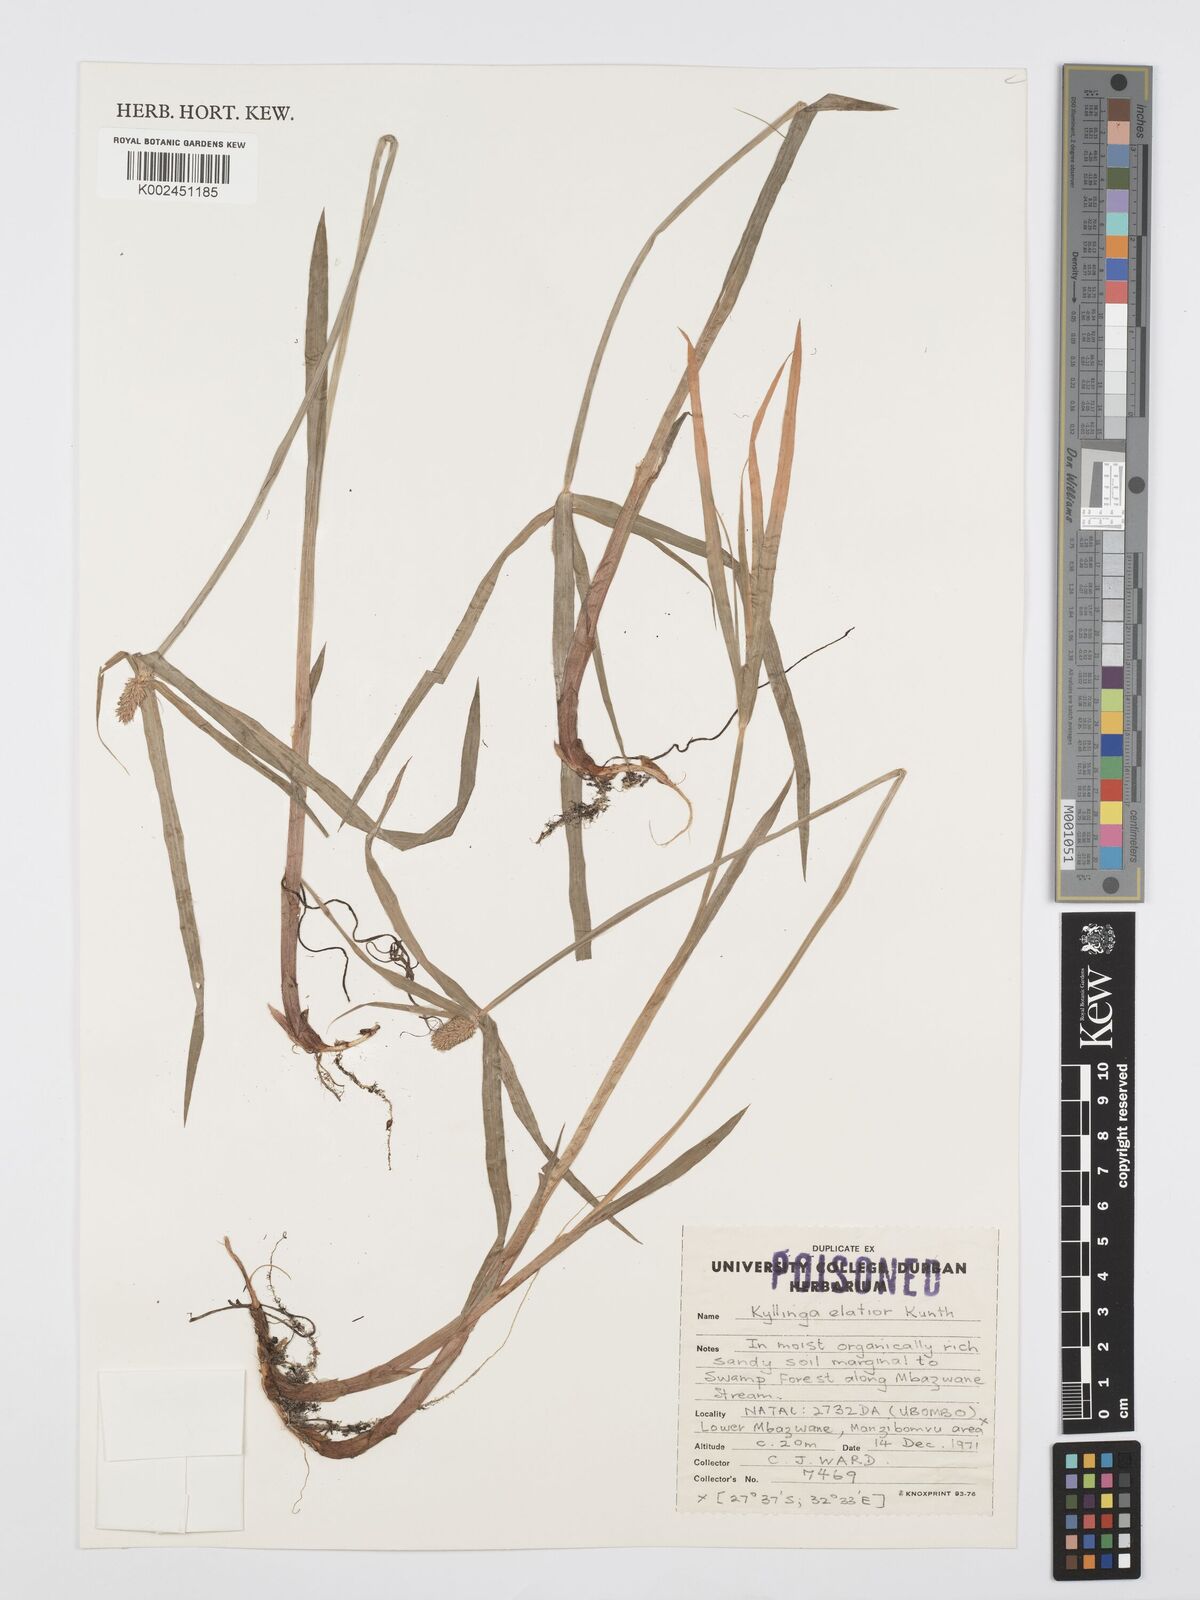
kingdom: Plantae
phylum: Tracheophyta
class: Liliopsida
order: Poales
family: Cyperaceae
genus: Cyperus
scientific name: Cyperus
